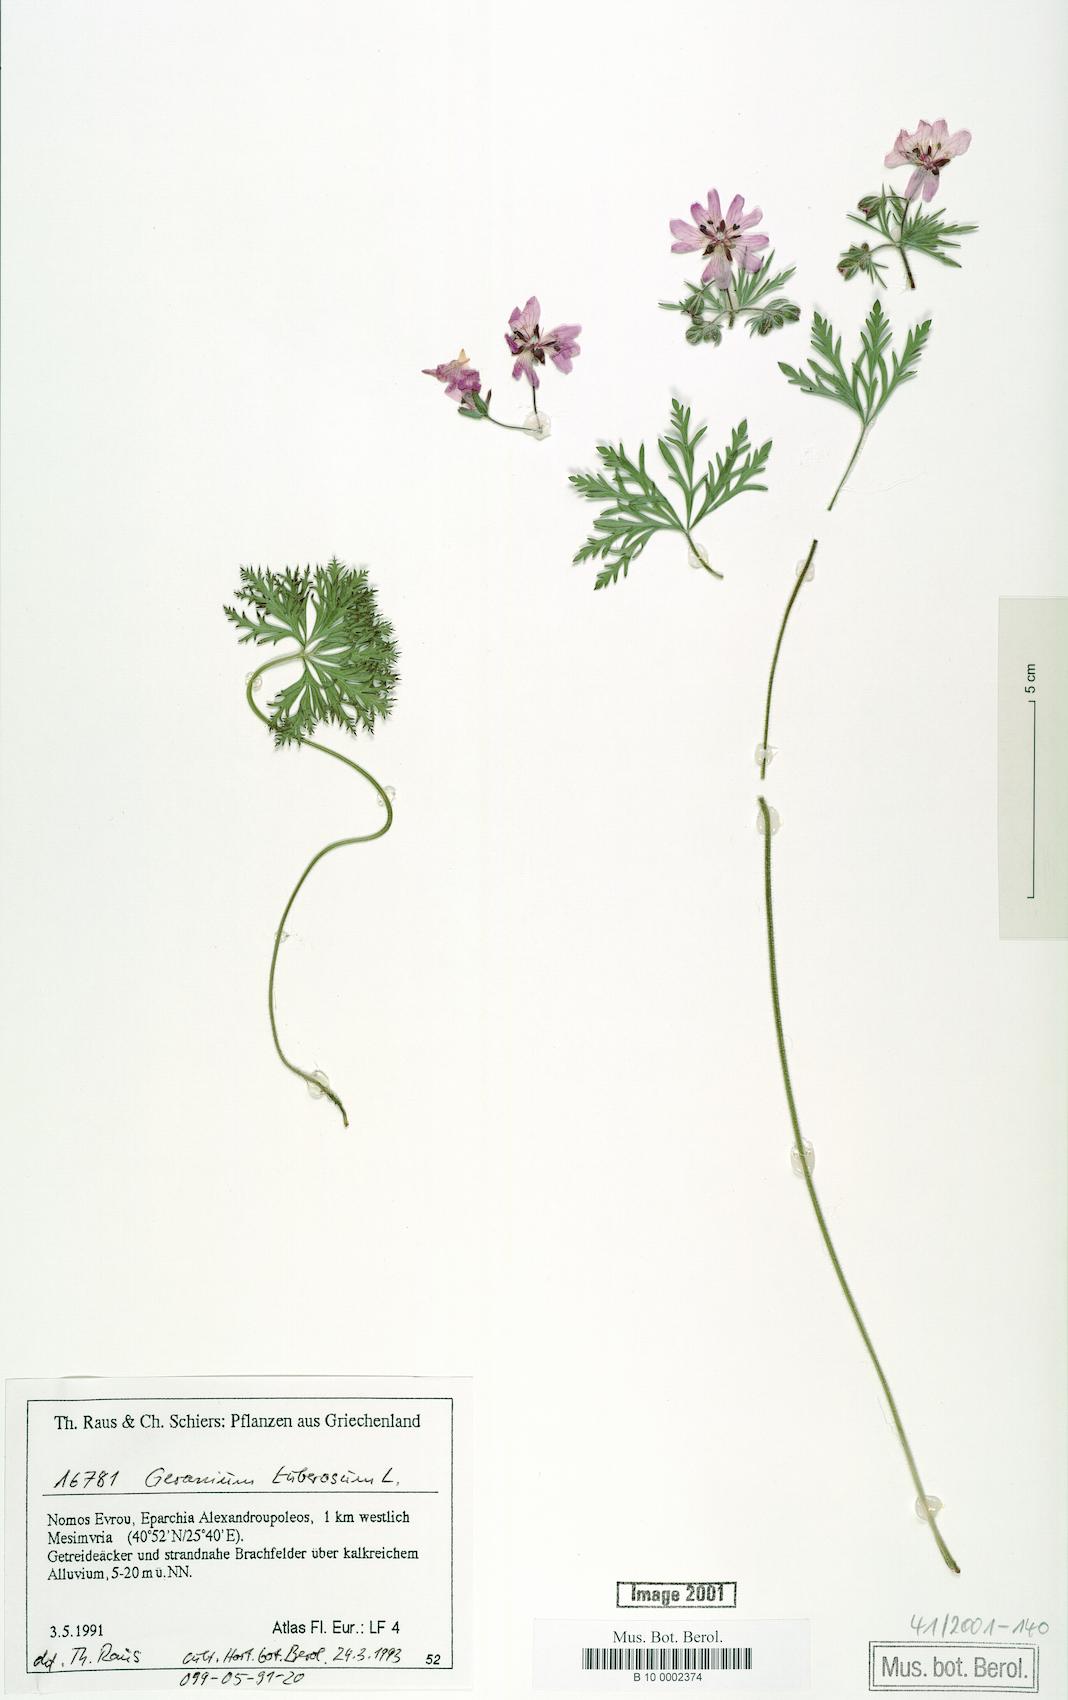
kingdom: Plantae
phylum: Tracheophyta
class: Magnoliopsida
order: Geraniales
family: Geraniaceae
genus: Geranium
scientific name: Geranium tuberosum
